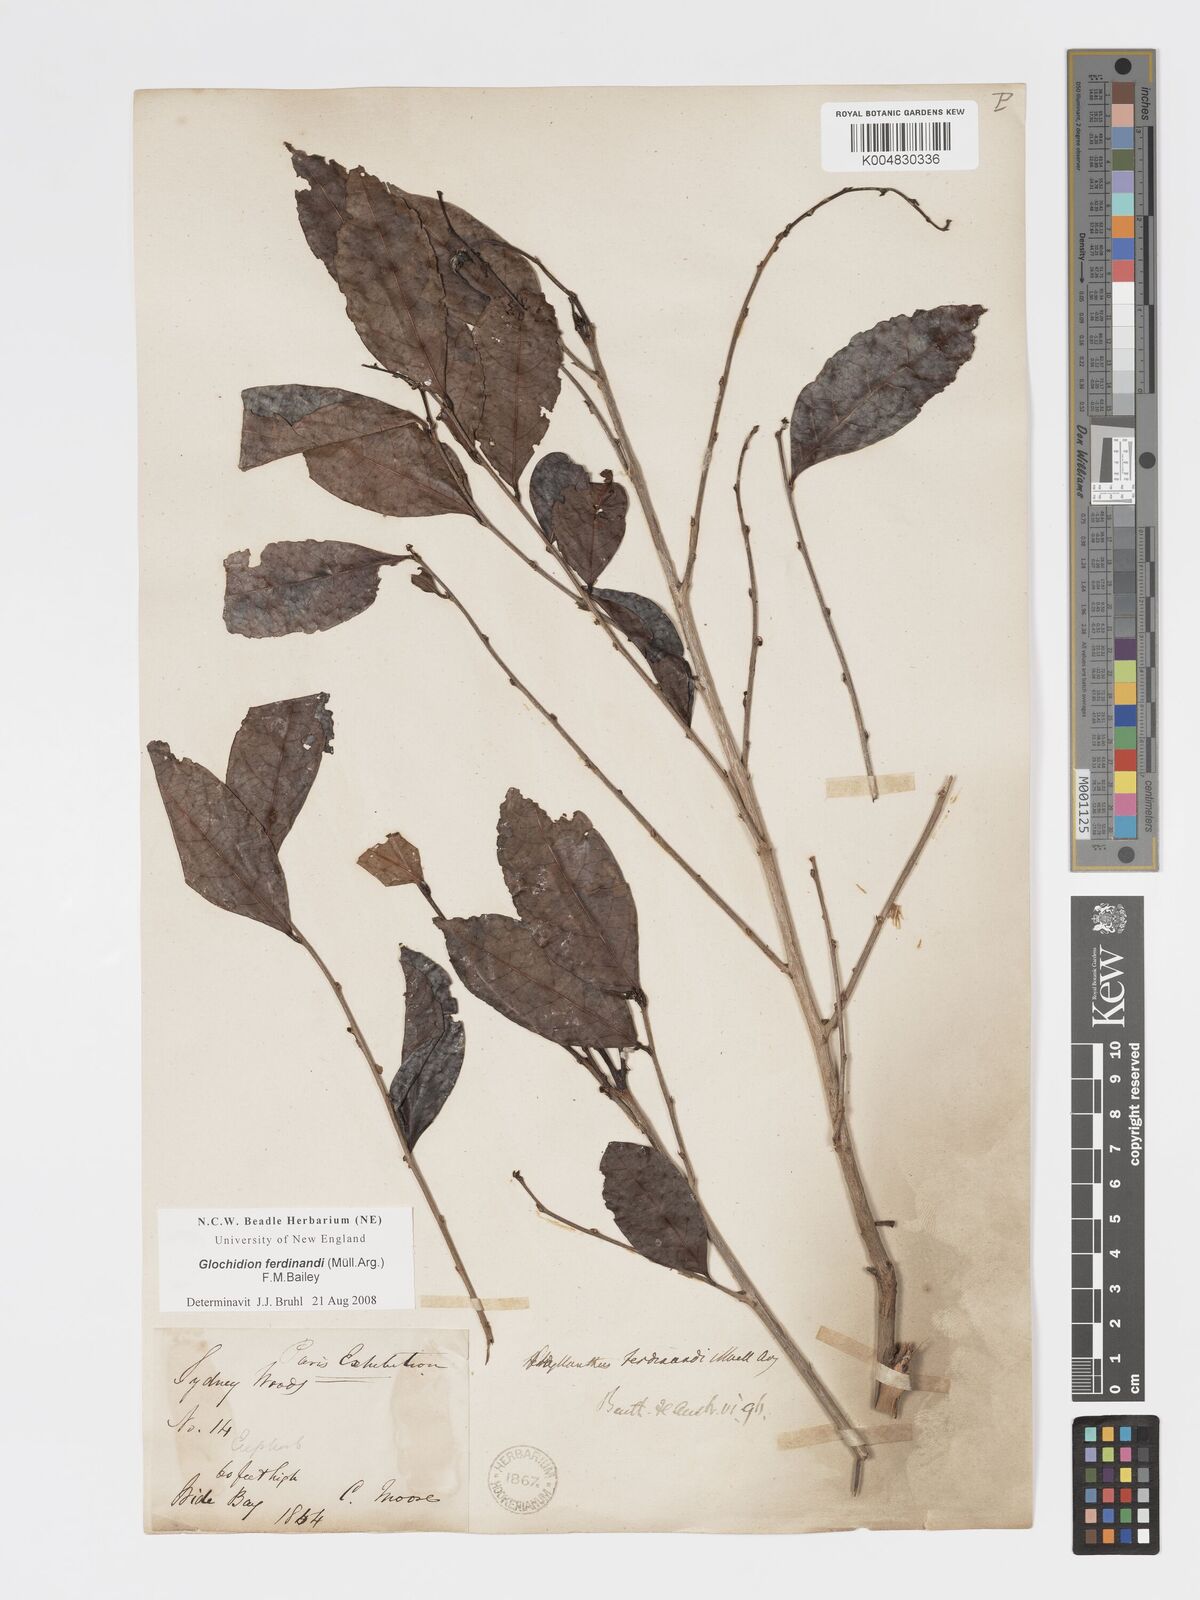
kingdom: Plantae
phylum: Tracheophyta
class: Magnoliopsida
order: Malpighiales
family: Phyllanthaceae
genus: Glochidion
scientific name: Glochidion ferdinandi
